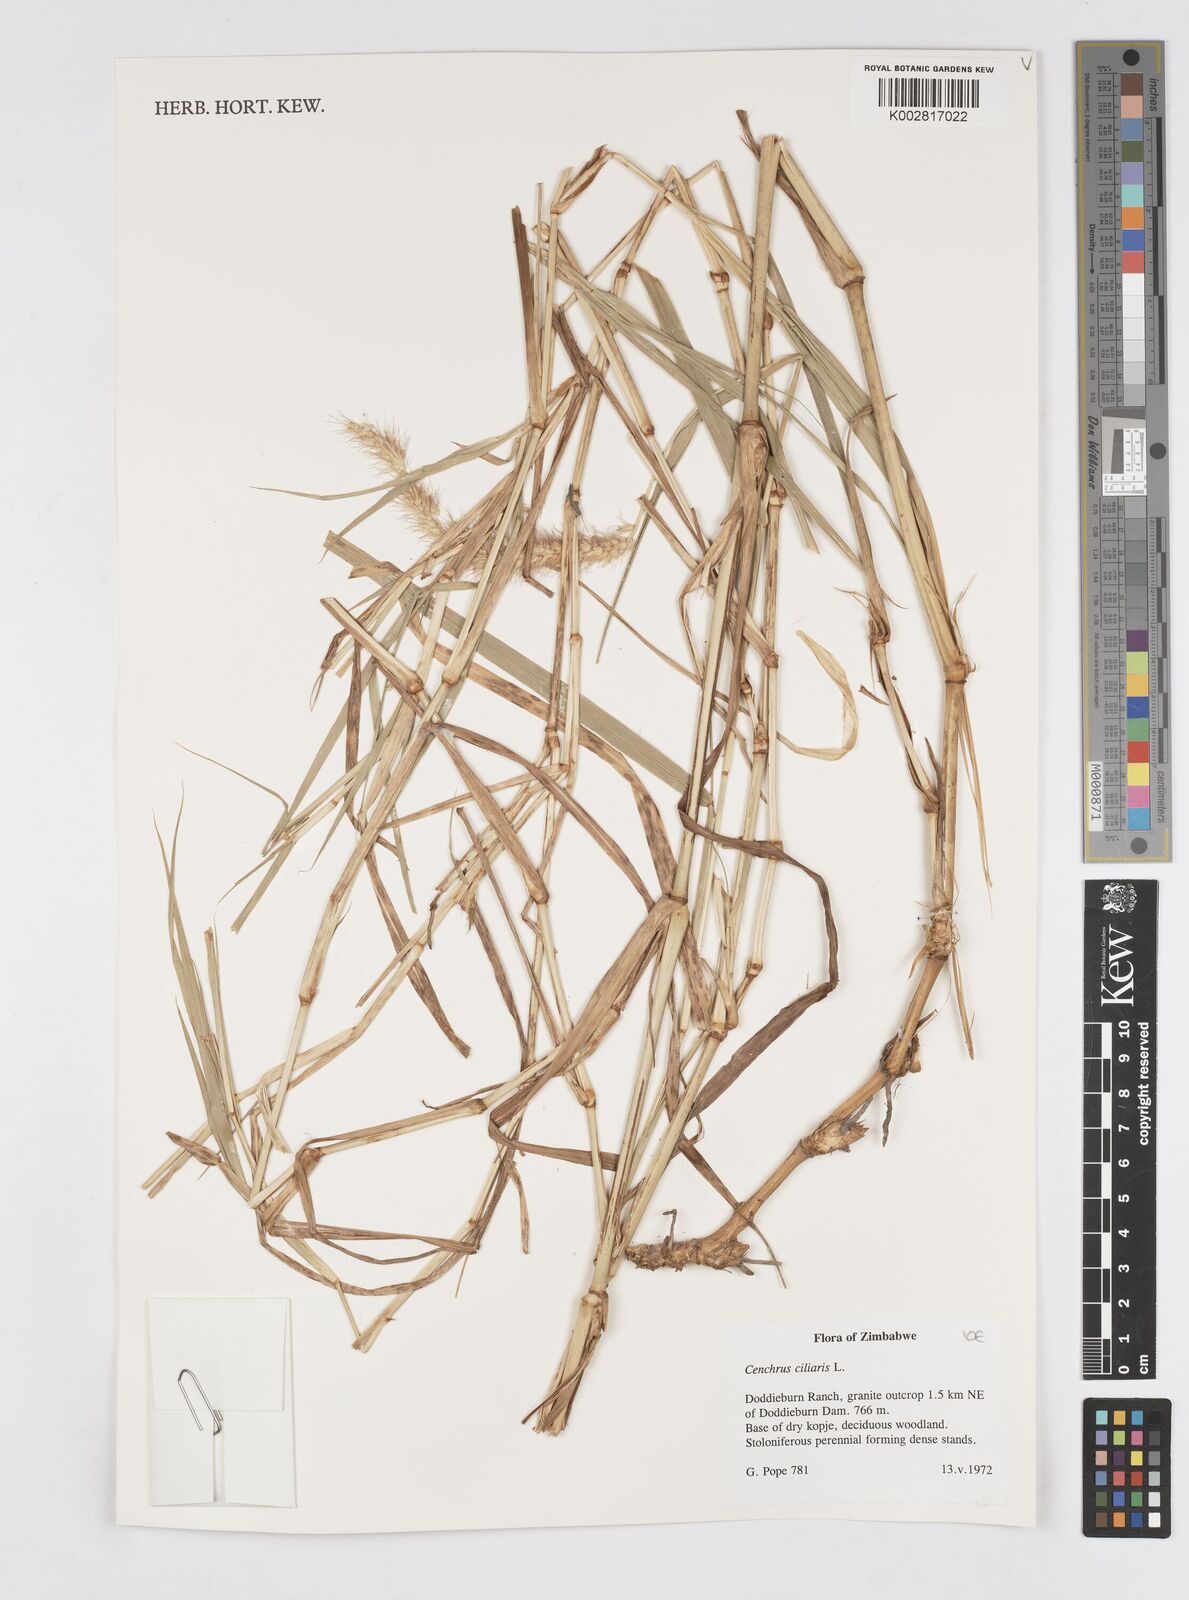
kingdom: Plantae
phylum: Tracheophyta
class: Liliopsida
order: Poales
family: Poaceae
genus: Cenchrus
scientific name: Cenchrus ciliaris
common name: Buffelgrass
